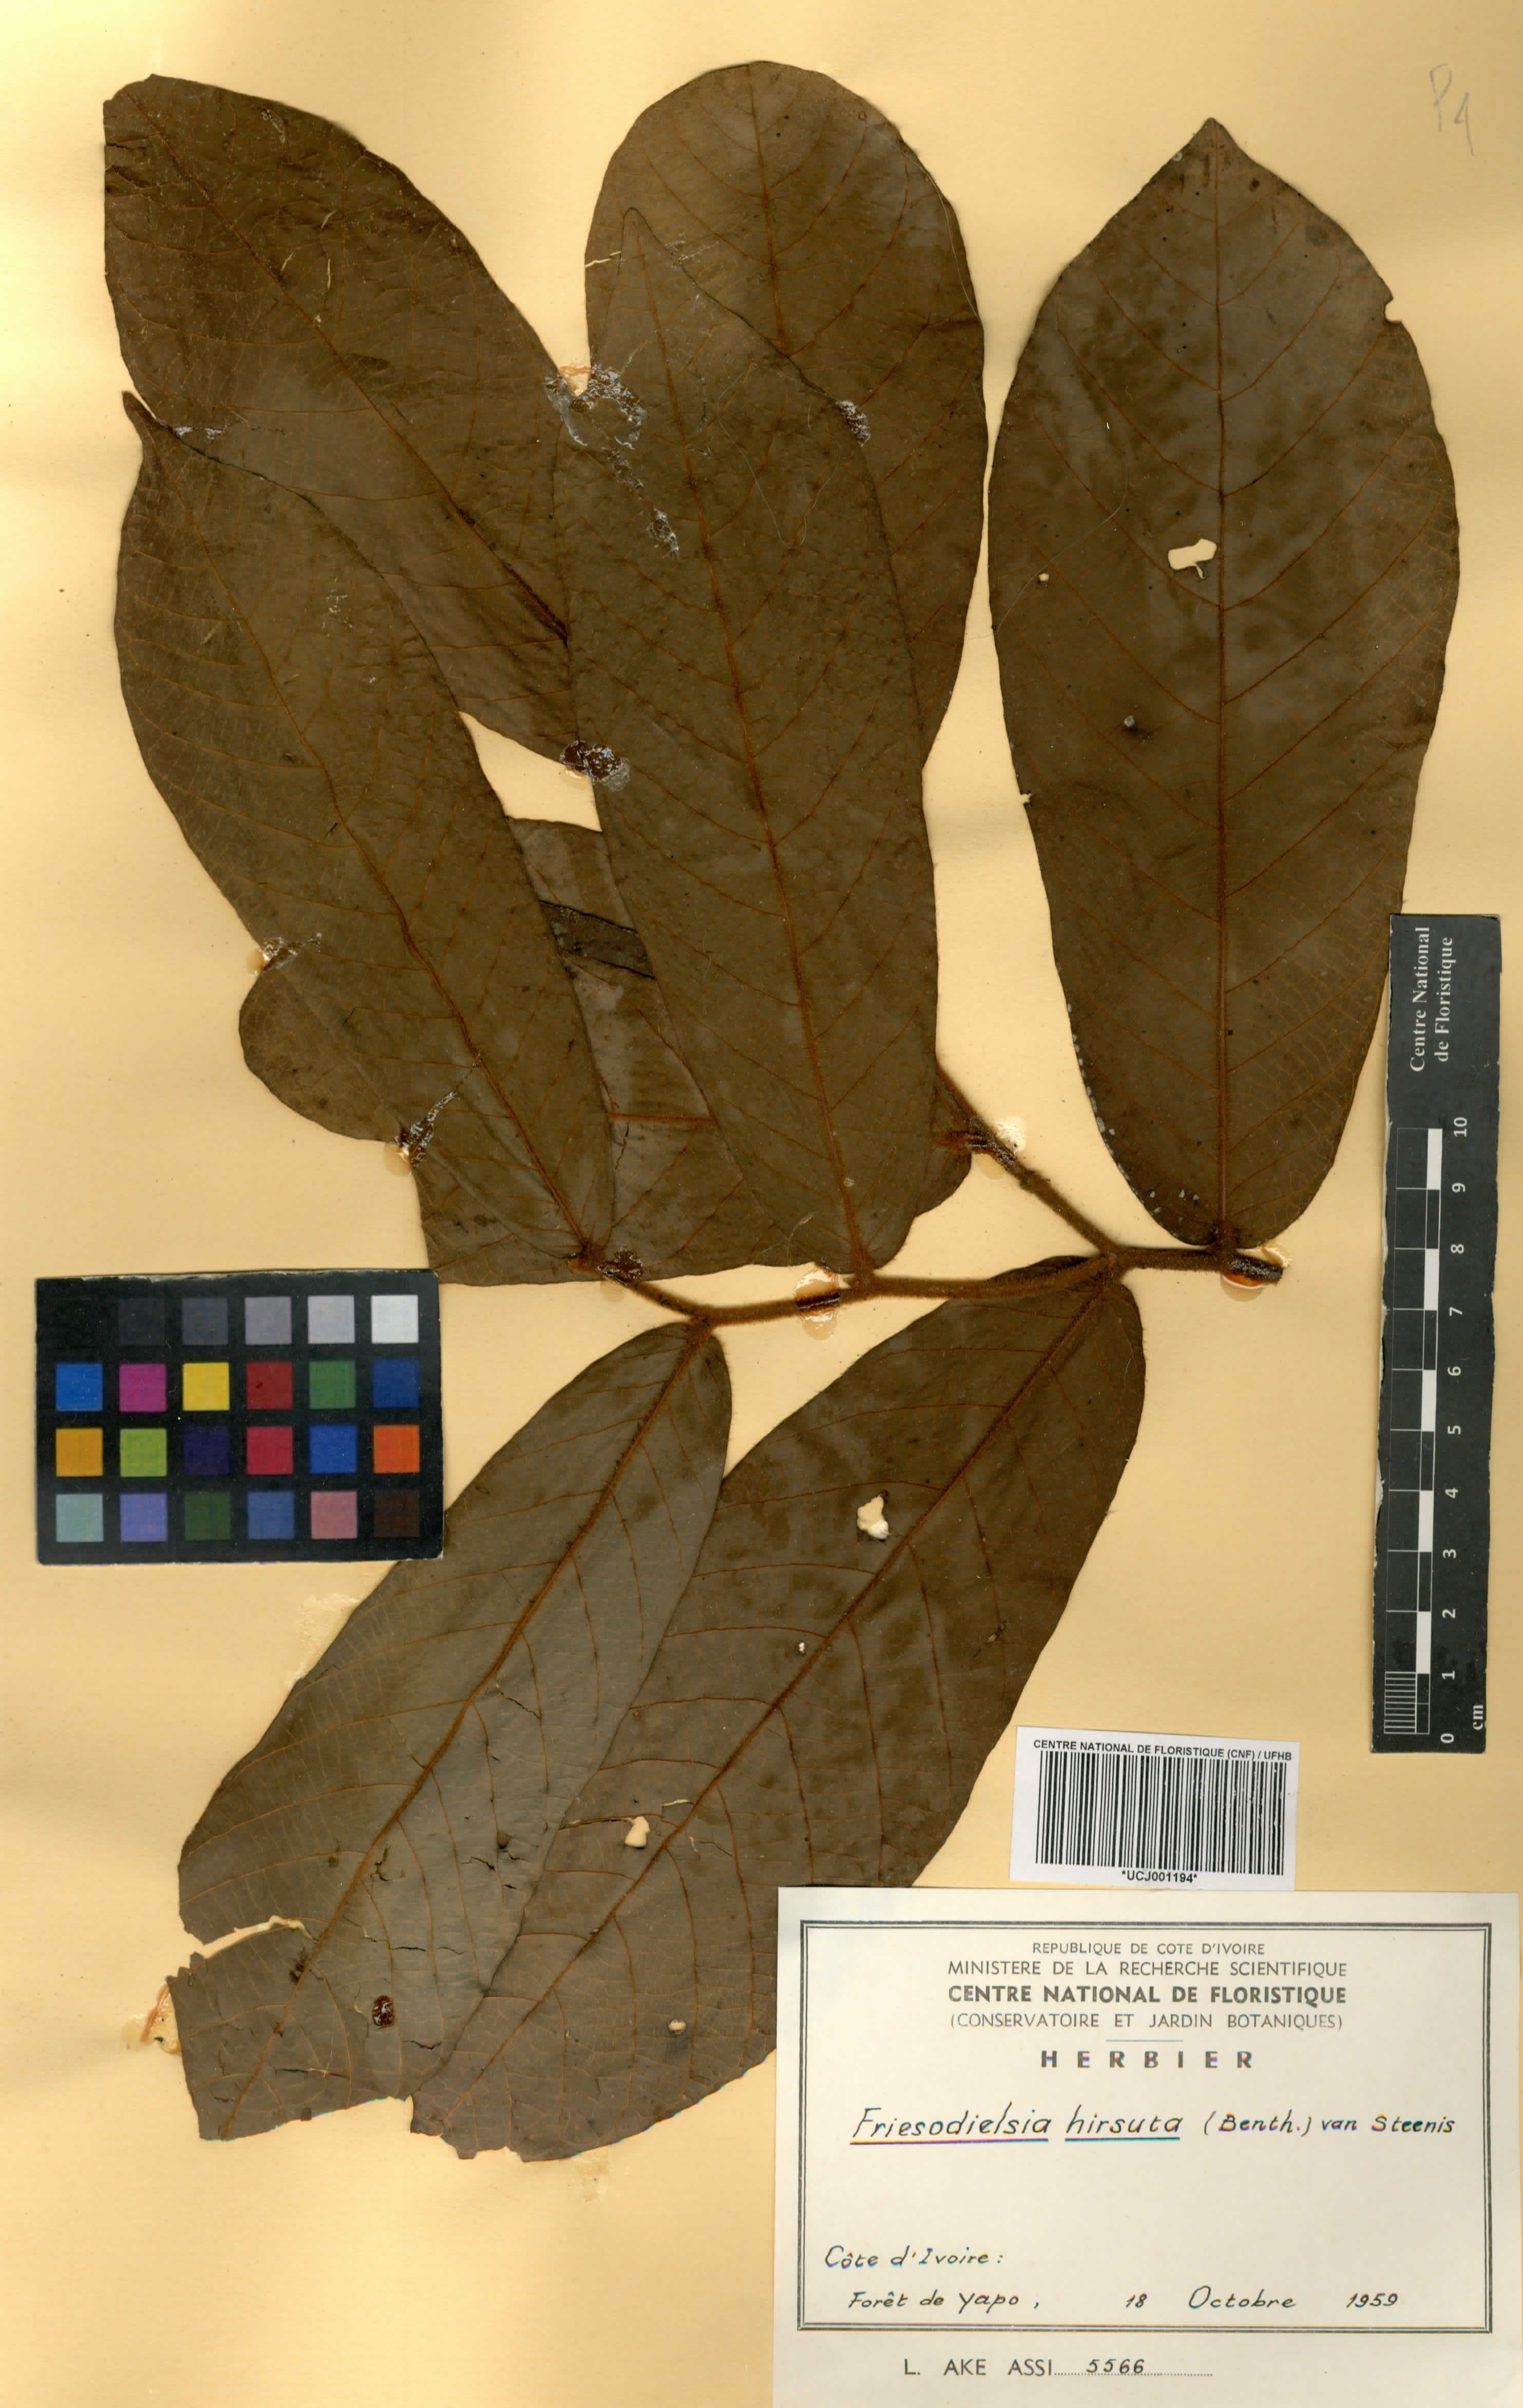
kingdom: Plantae
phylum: Tracheophyta
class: Magnoliopsida
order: Magnoliales
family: Annonaceae
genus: Friesodielsia
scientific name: Friesodielsia hirsuta
